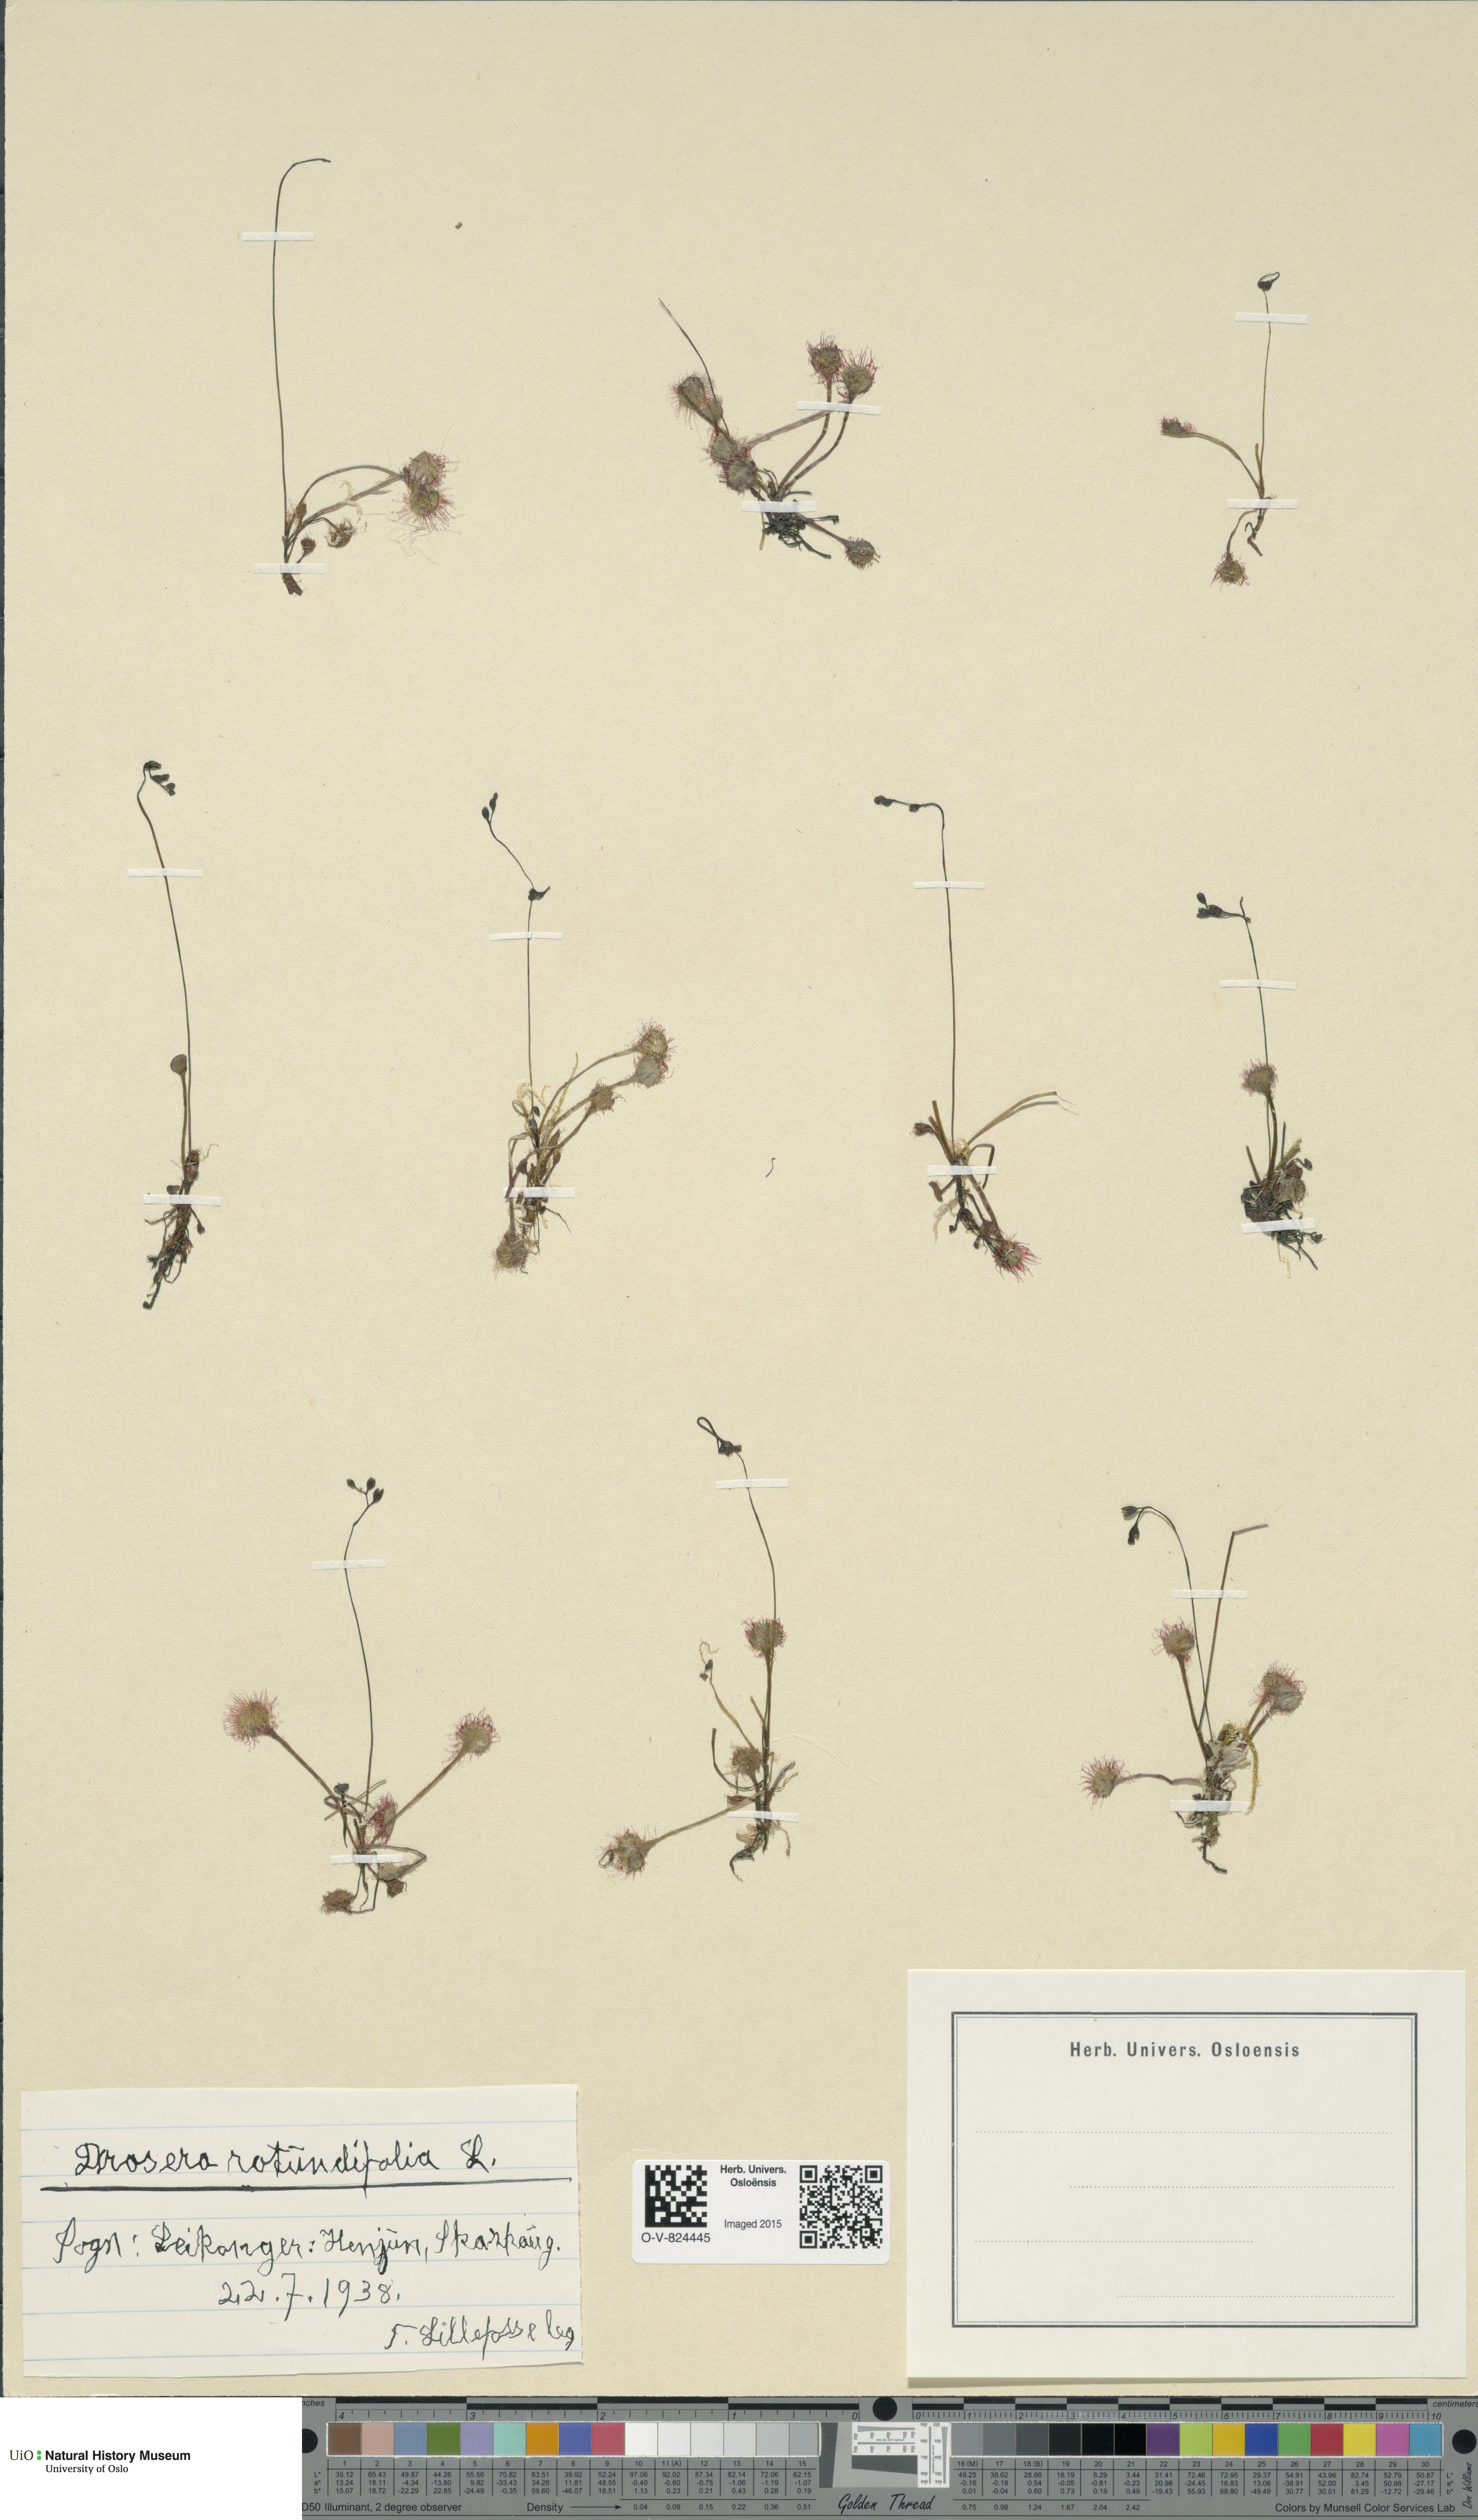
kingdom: Plantae
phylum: Tracheophyta
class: Magnoliopsida
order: Caryophyllales
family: Droseraceae
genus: Drosera
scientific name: Drosera rotundifolia
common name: Round-leaved sundew
